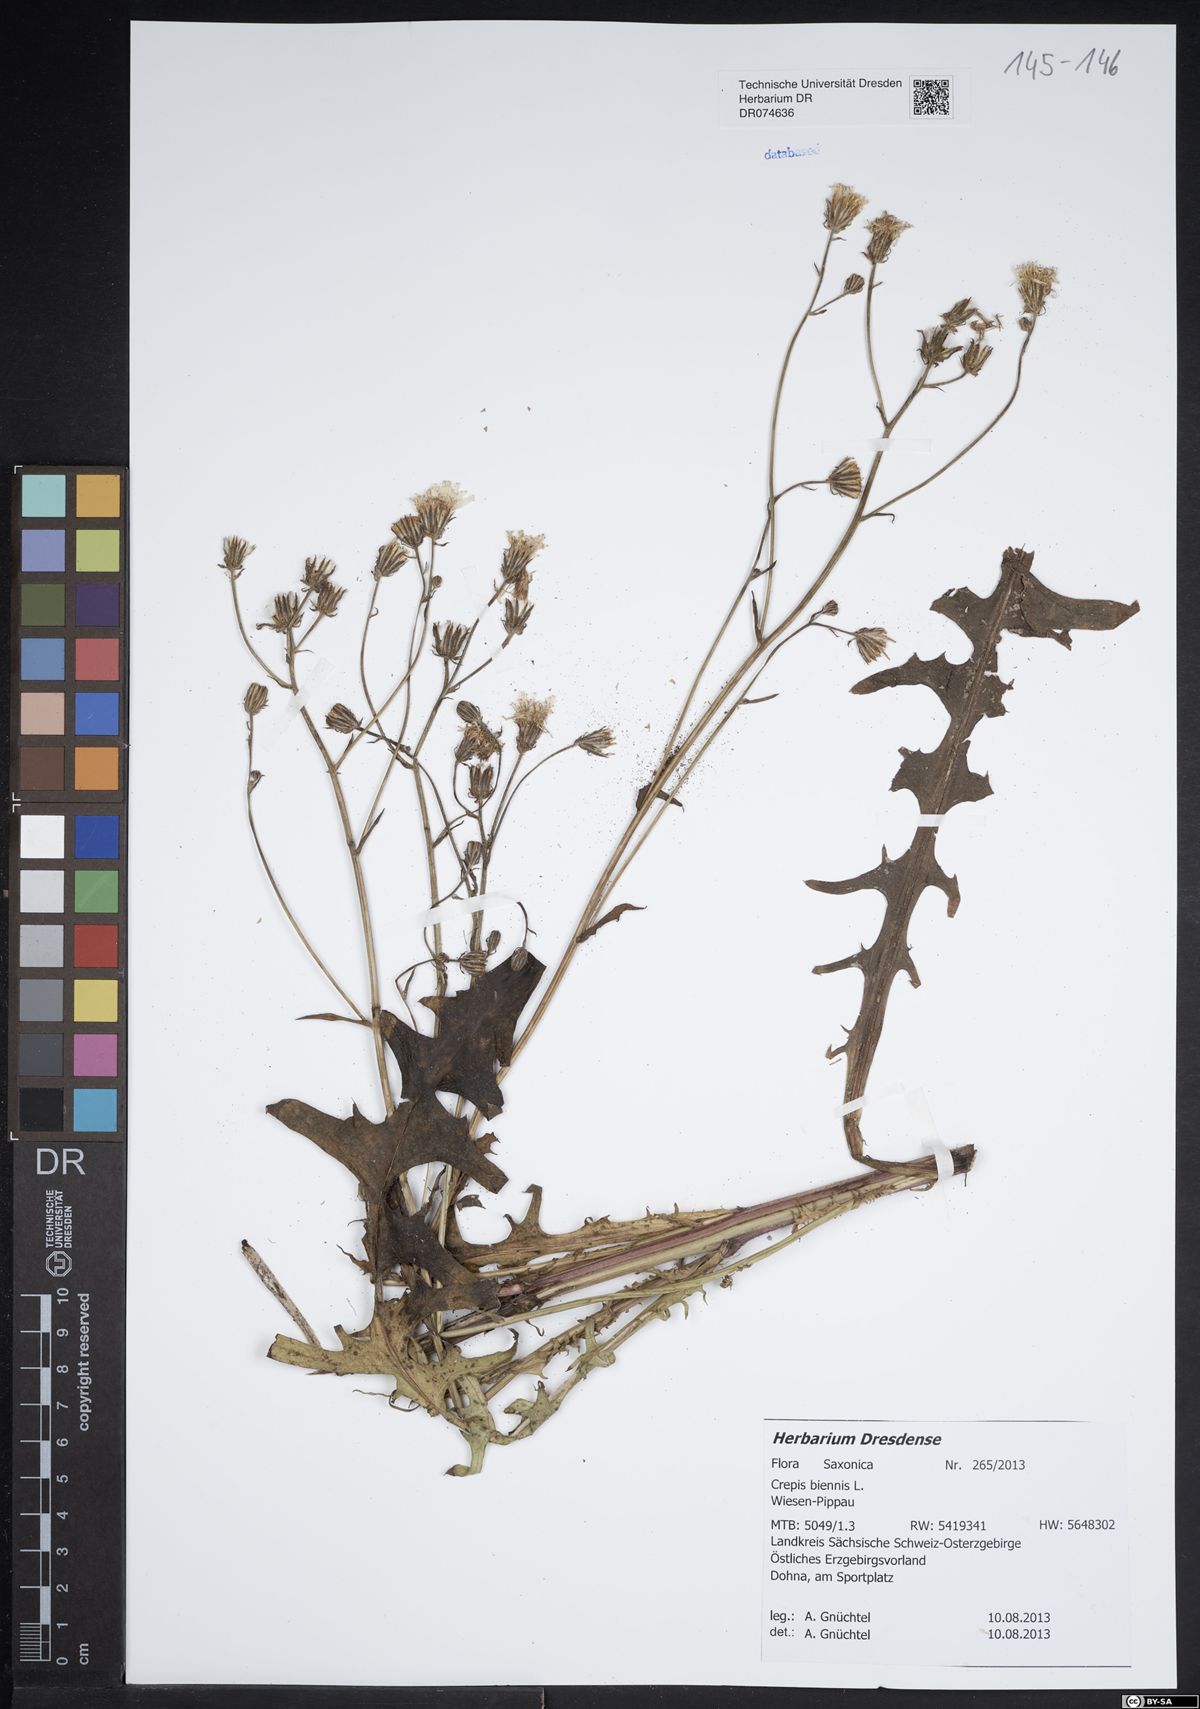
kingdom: Plantae
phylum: Tracheophyta
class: Magnoliopsida
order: Asterales
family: Asteraceae
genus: Crepis
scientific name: Crepis biennis
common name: Rough hawk's-beard
